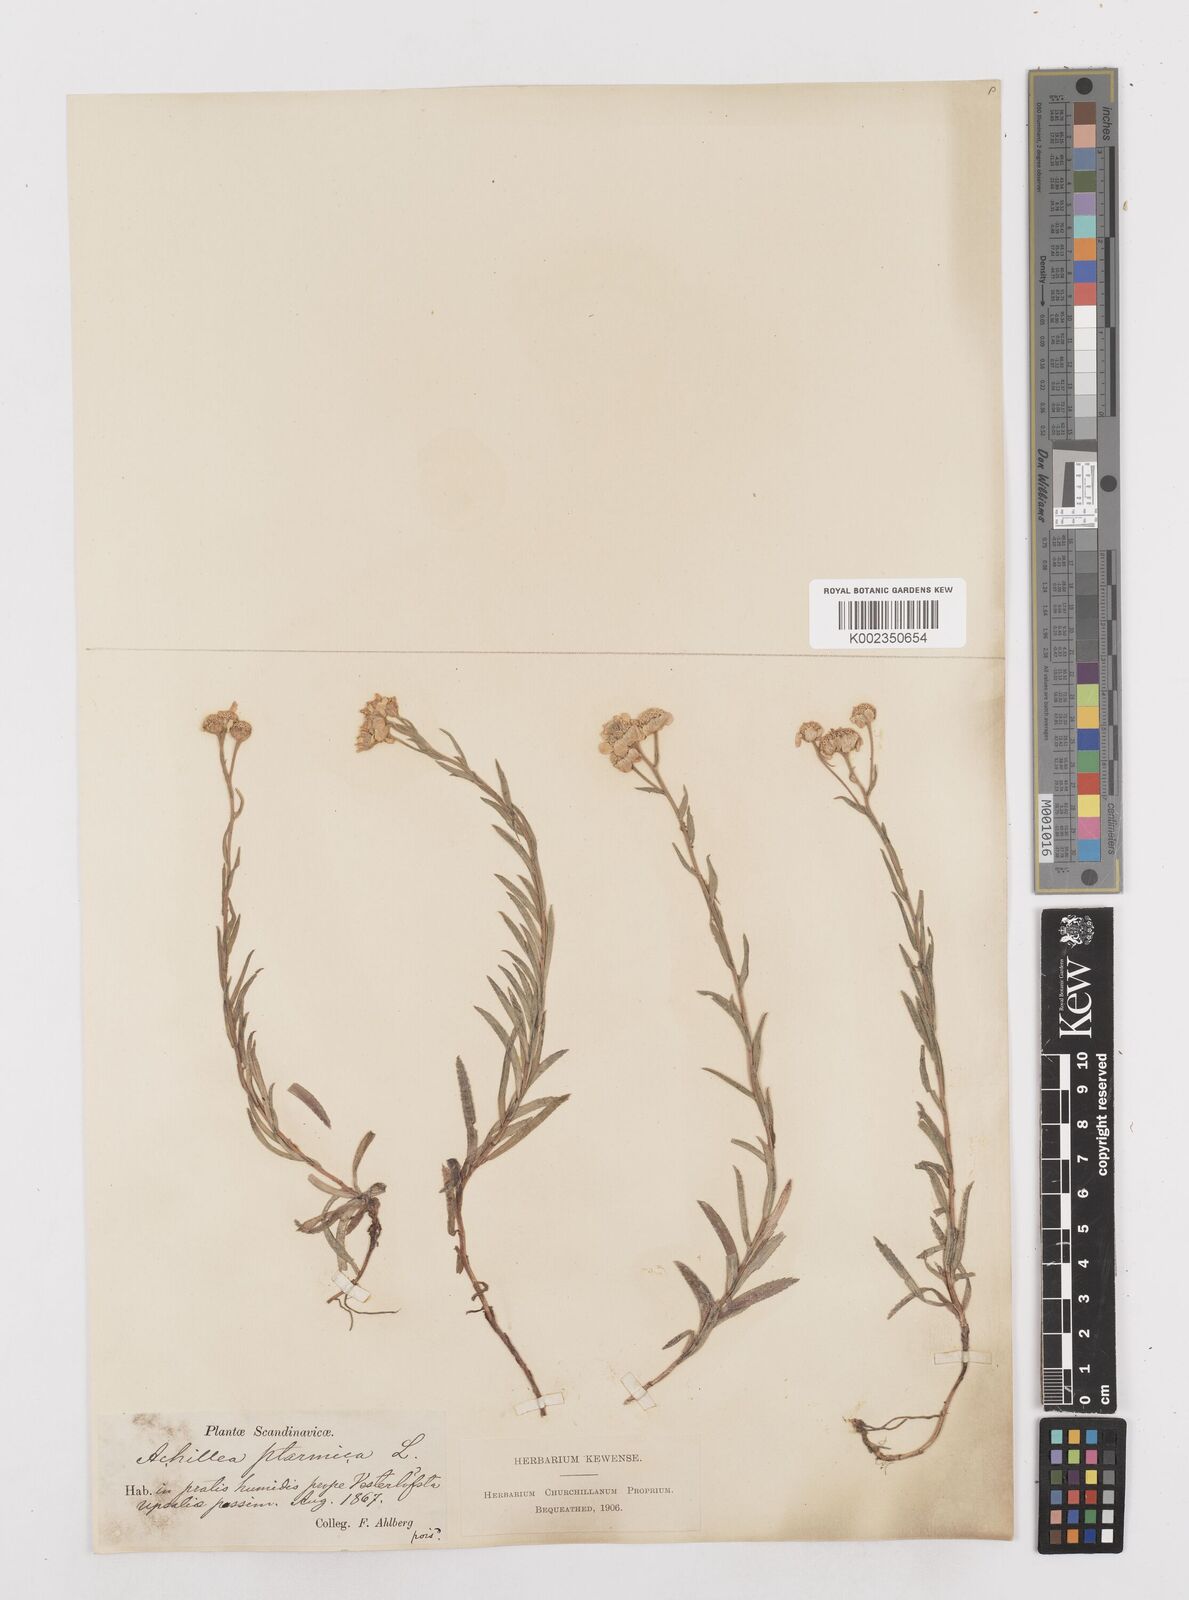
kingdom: Plantae
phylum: Tracheophyta
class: Magnoliopsida
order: Asterales
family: Asteraceae
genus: Achillea
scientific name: Achillea ptarmica
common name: Sneezeweed
